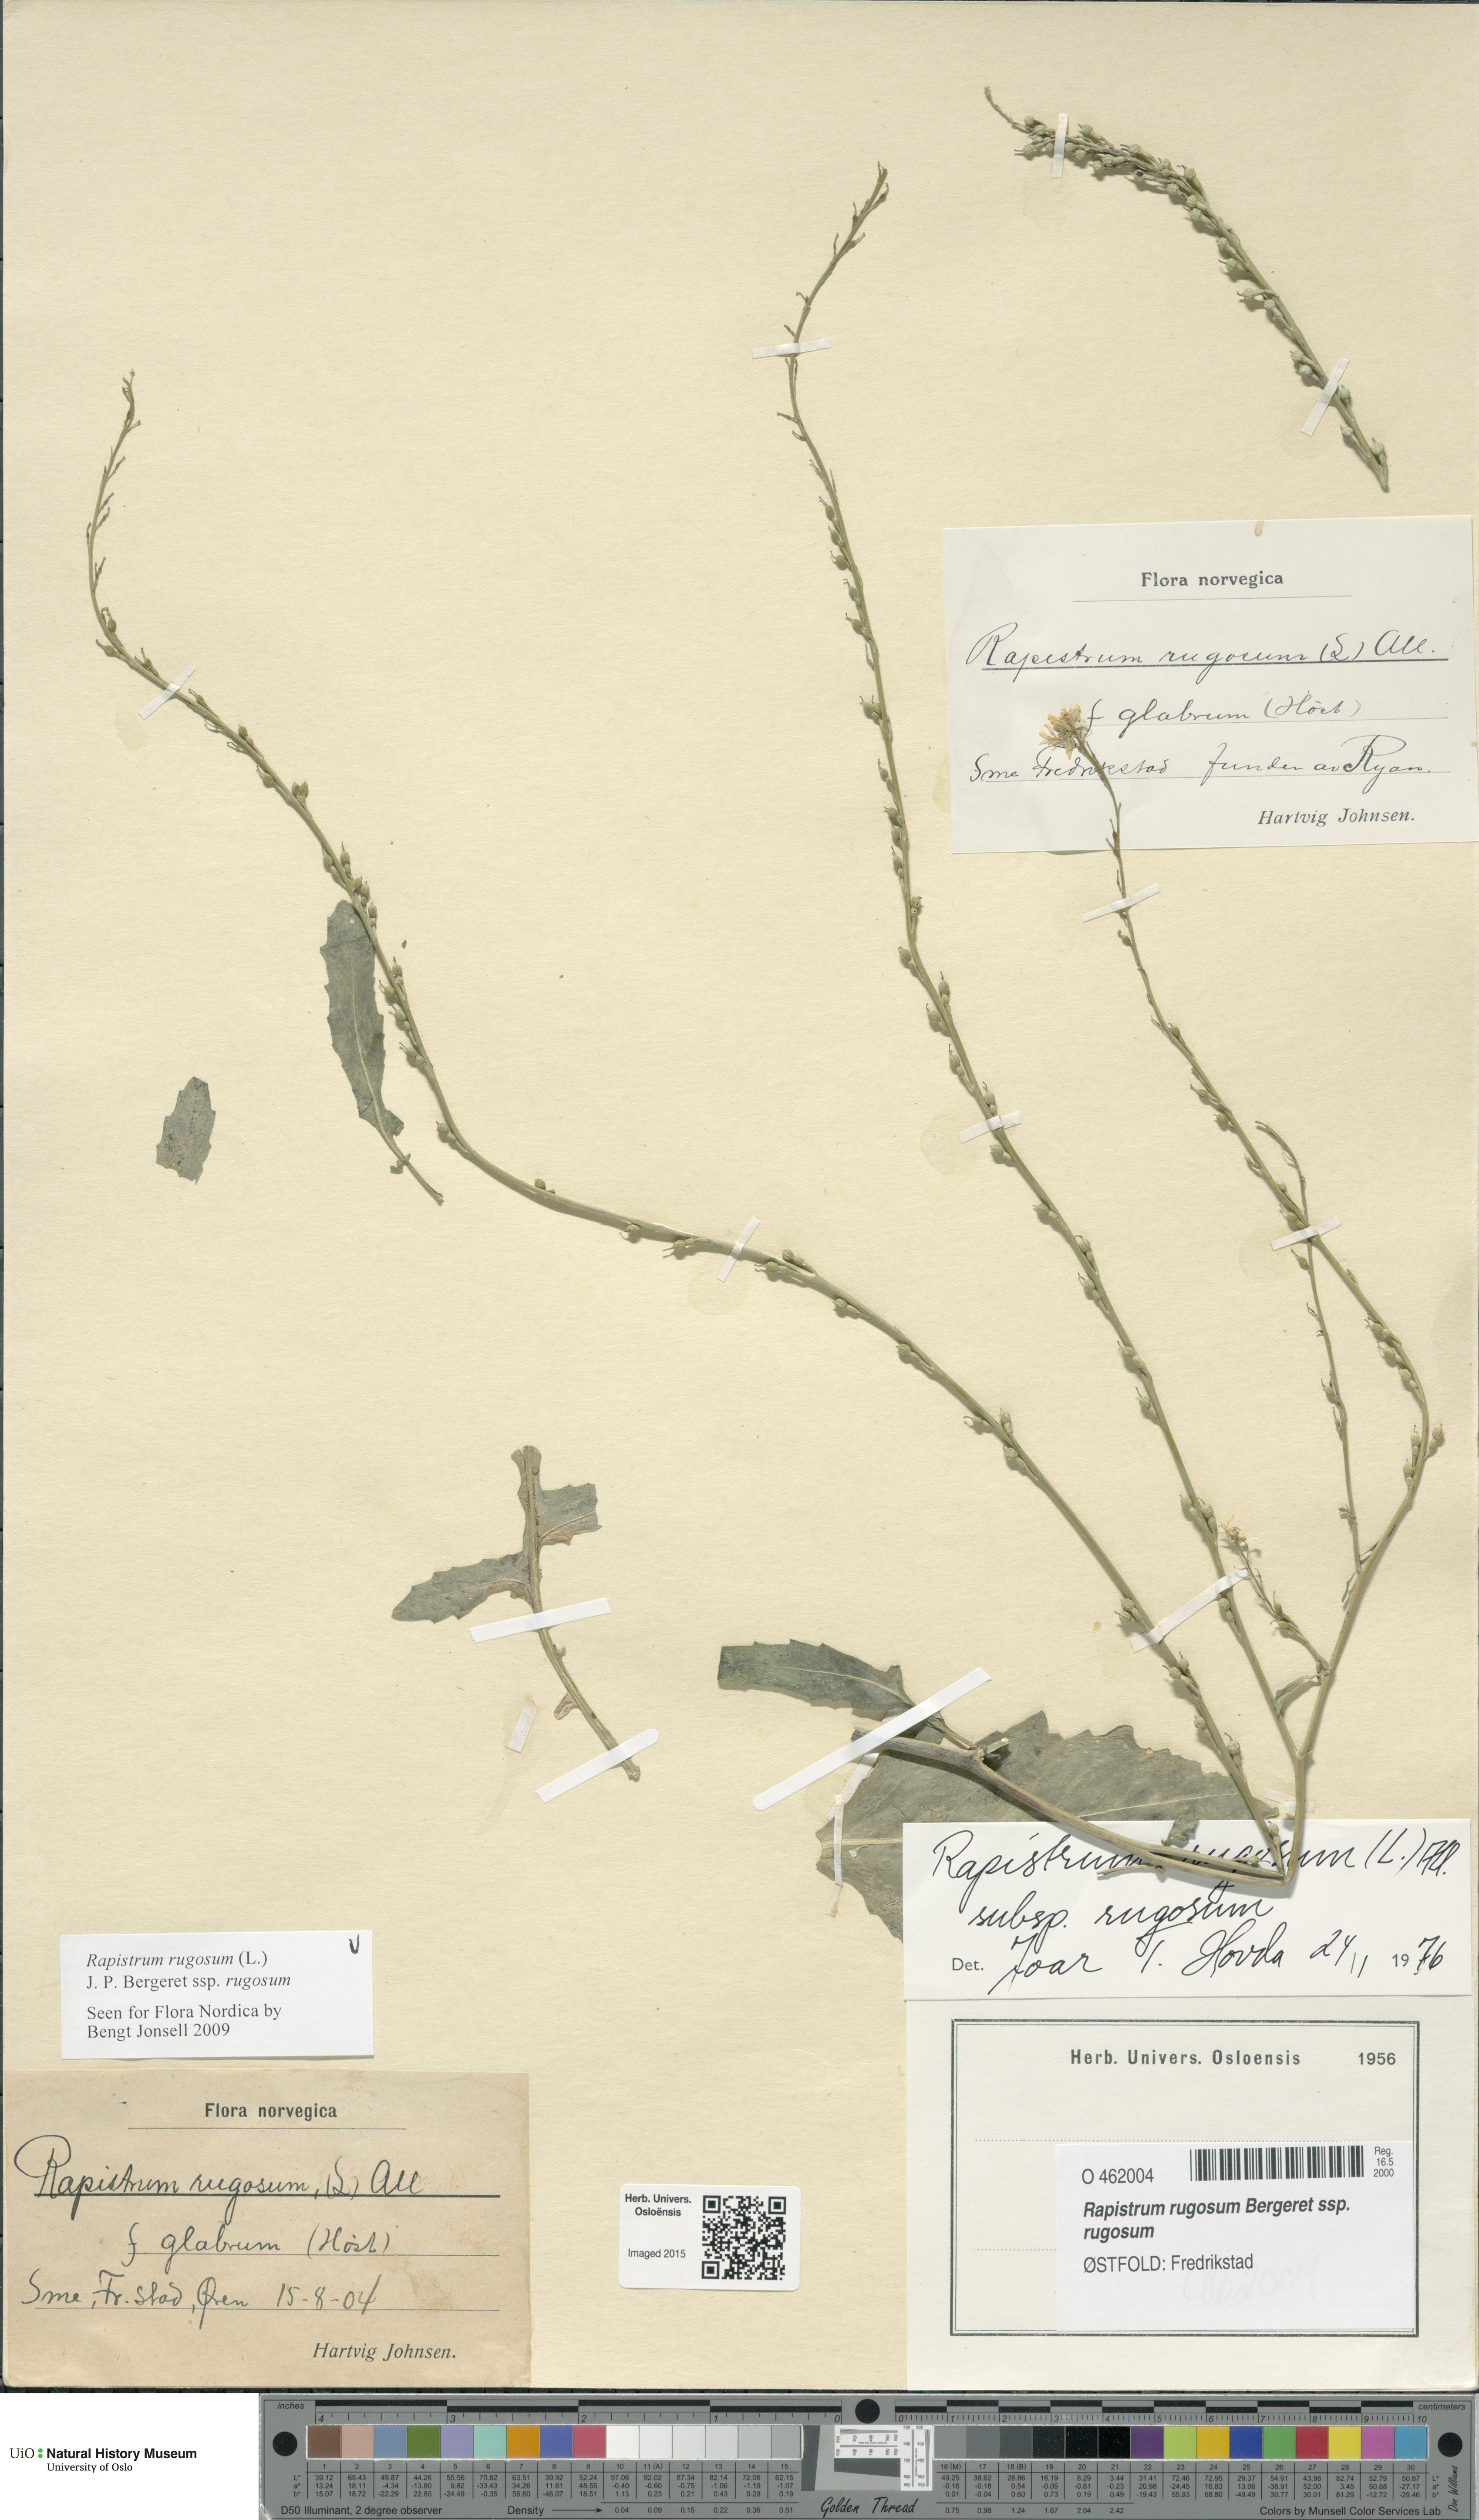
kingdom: Plantae
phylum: Tracheophyta
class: Magnoliopsida
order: Brassicales
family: Brassicaceae
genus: Rapistrum
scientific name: Rapistrum rugosum
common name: Annual bastardcabbage
